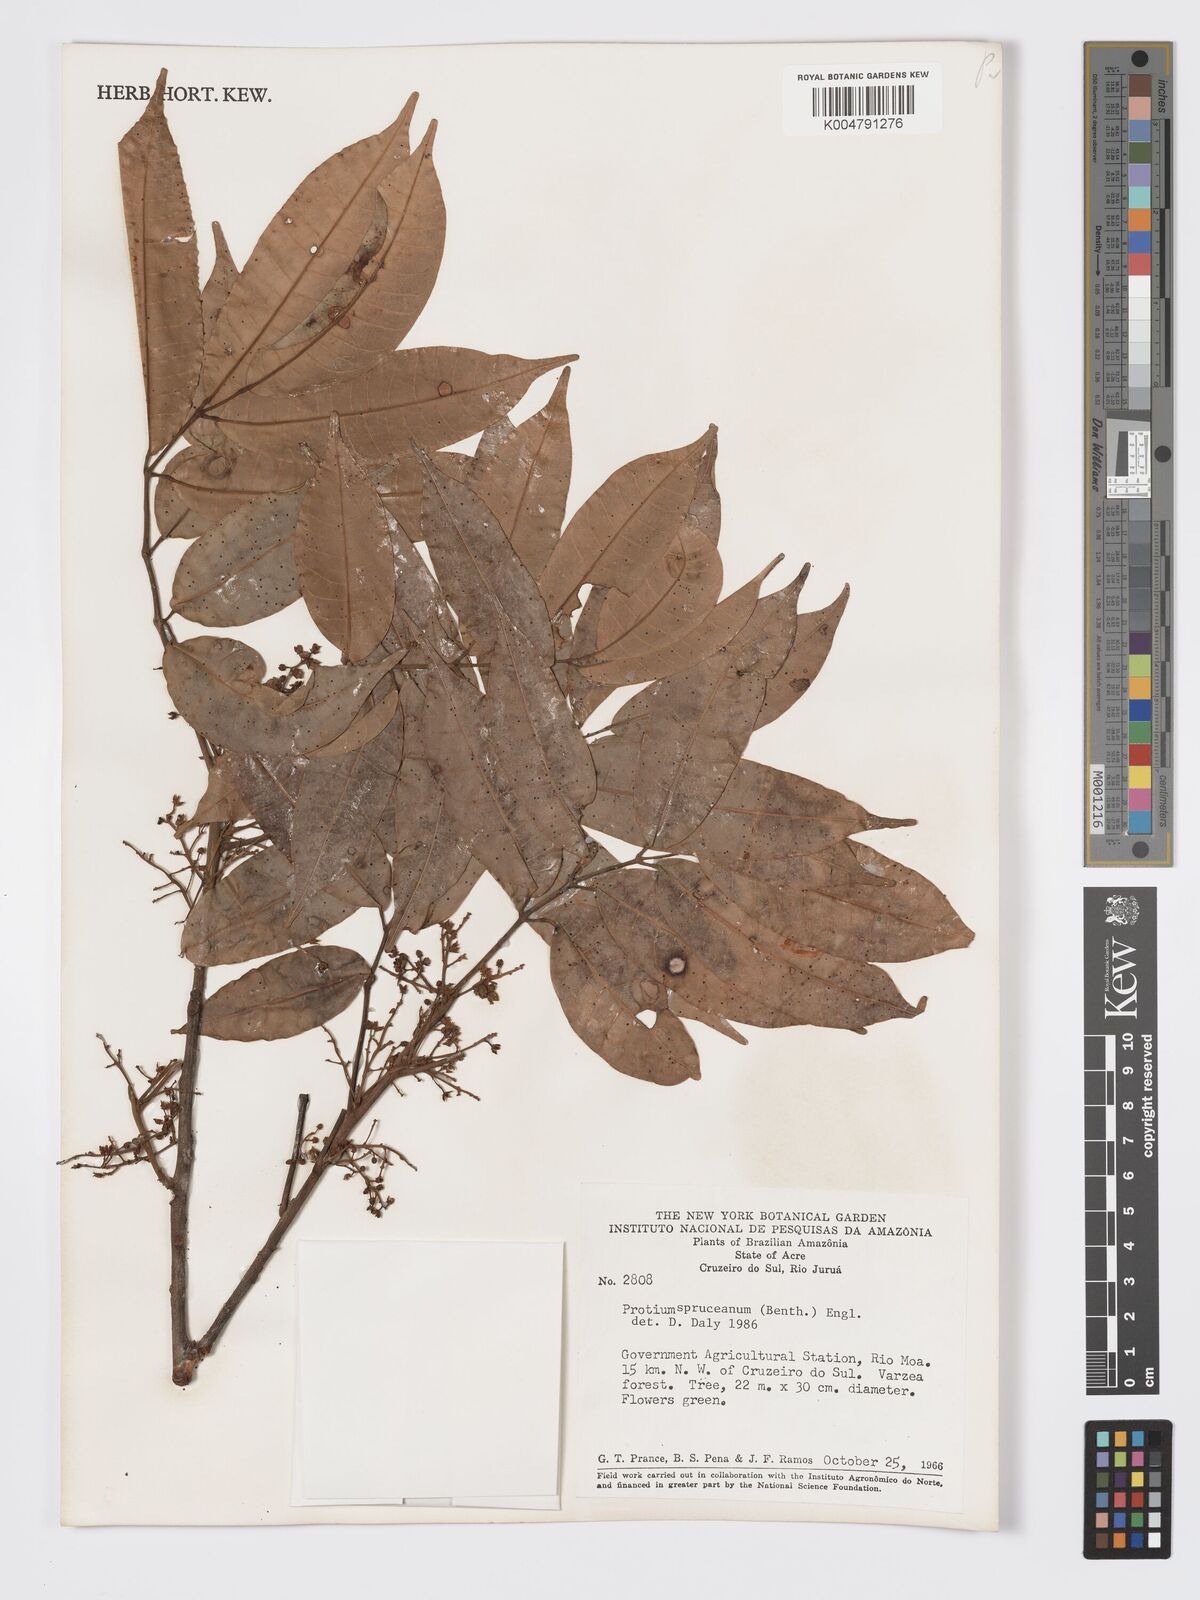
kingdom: Plantae
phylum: Tracheophyta
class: Magnoliopsida
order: Sapindales
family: Burseraceae
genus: Protium
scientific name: Protium spruceanum
